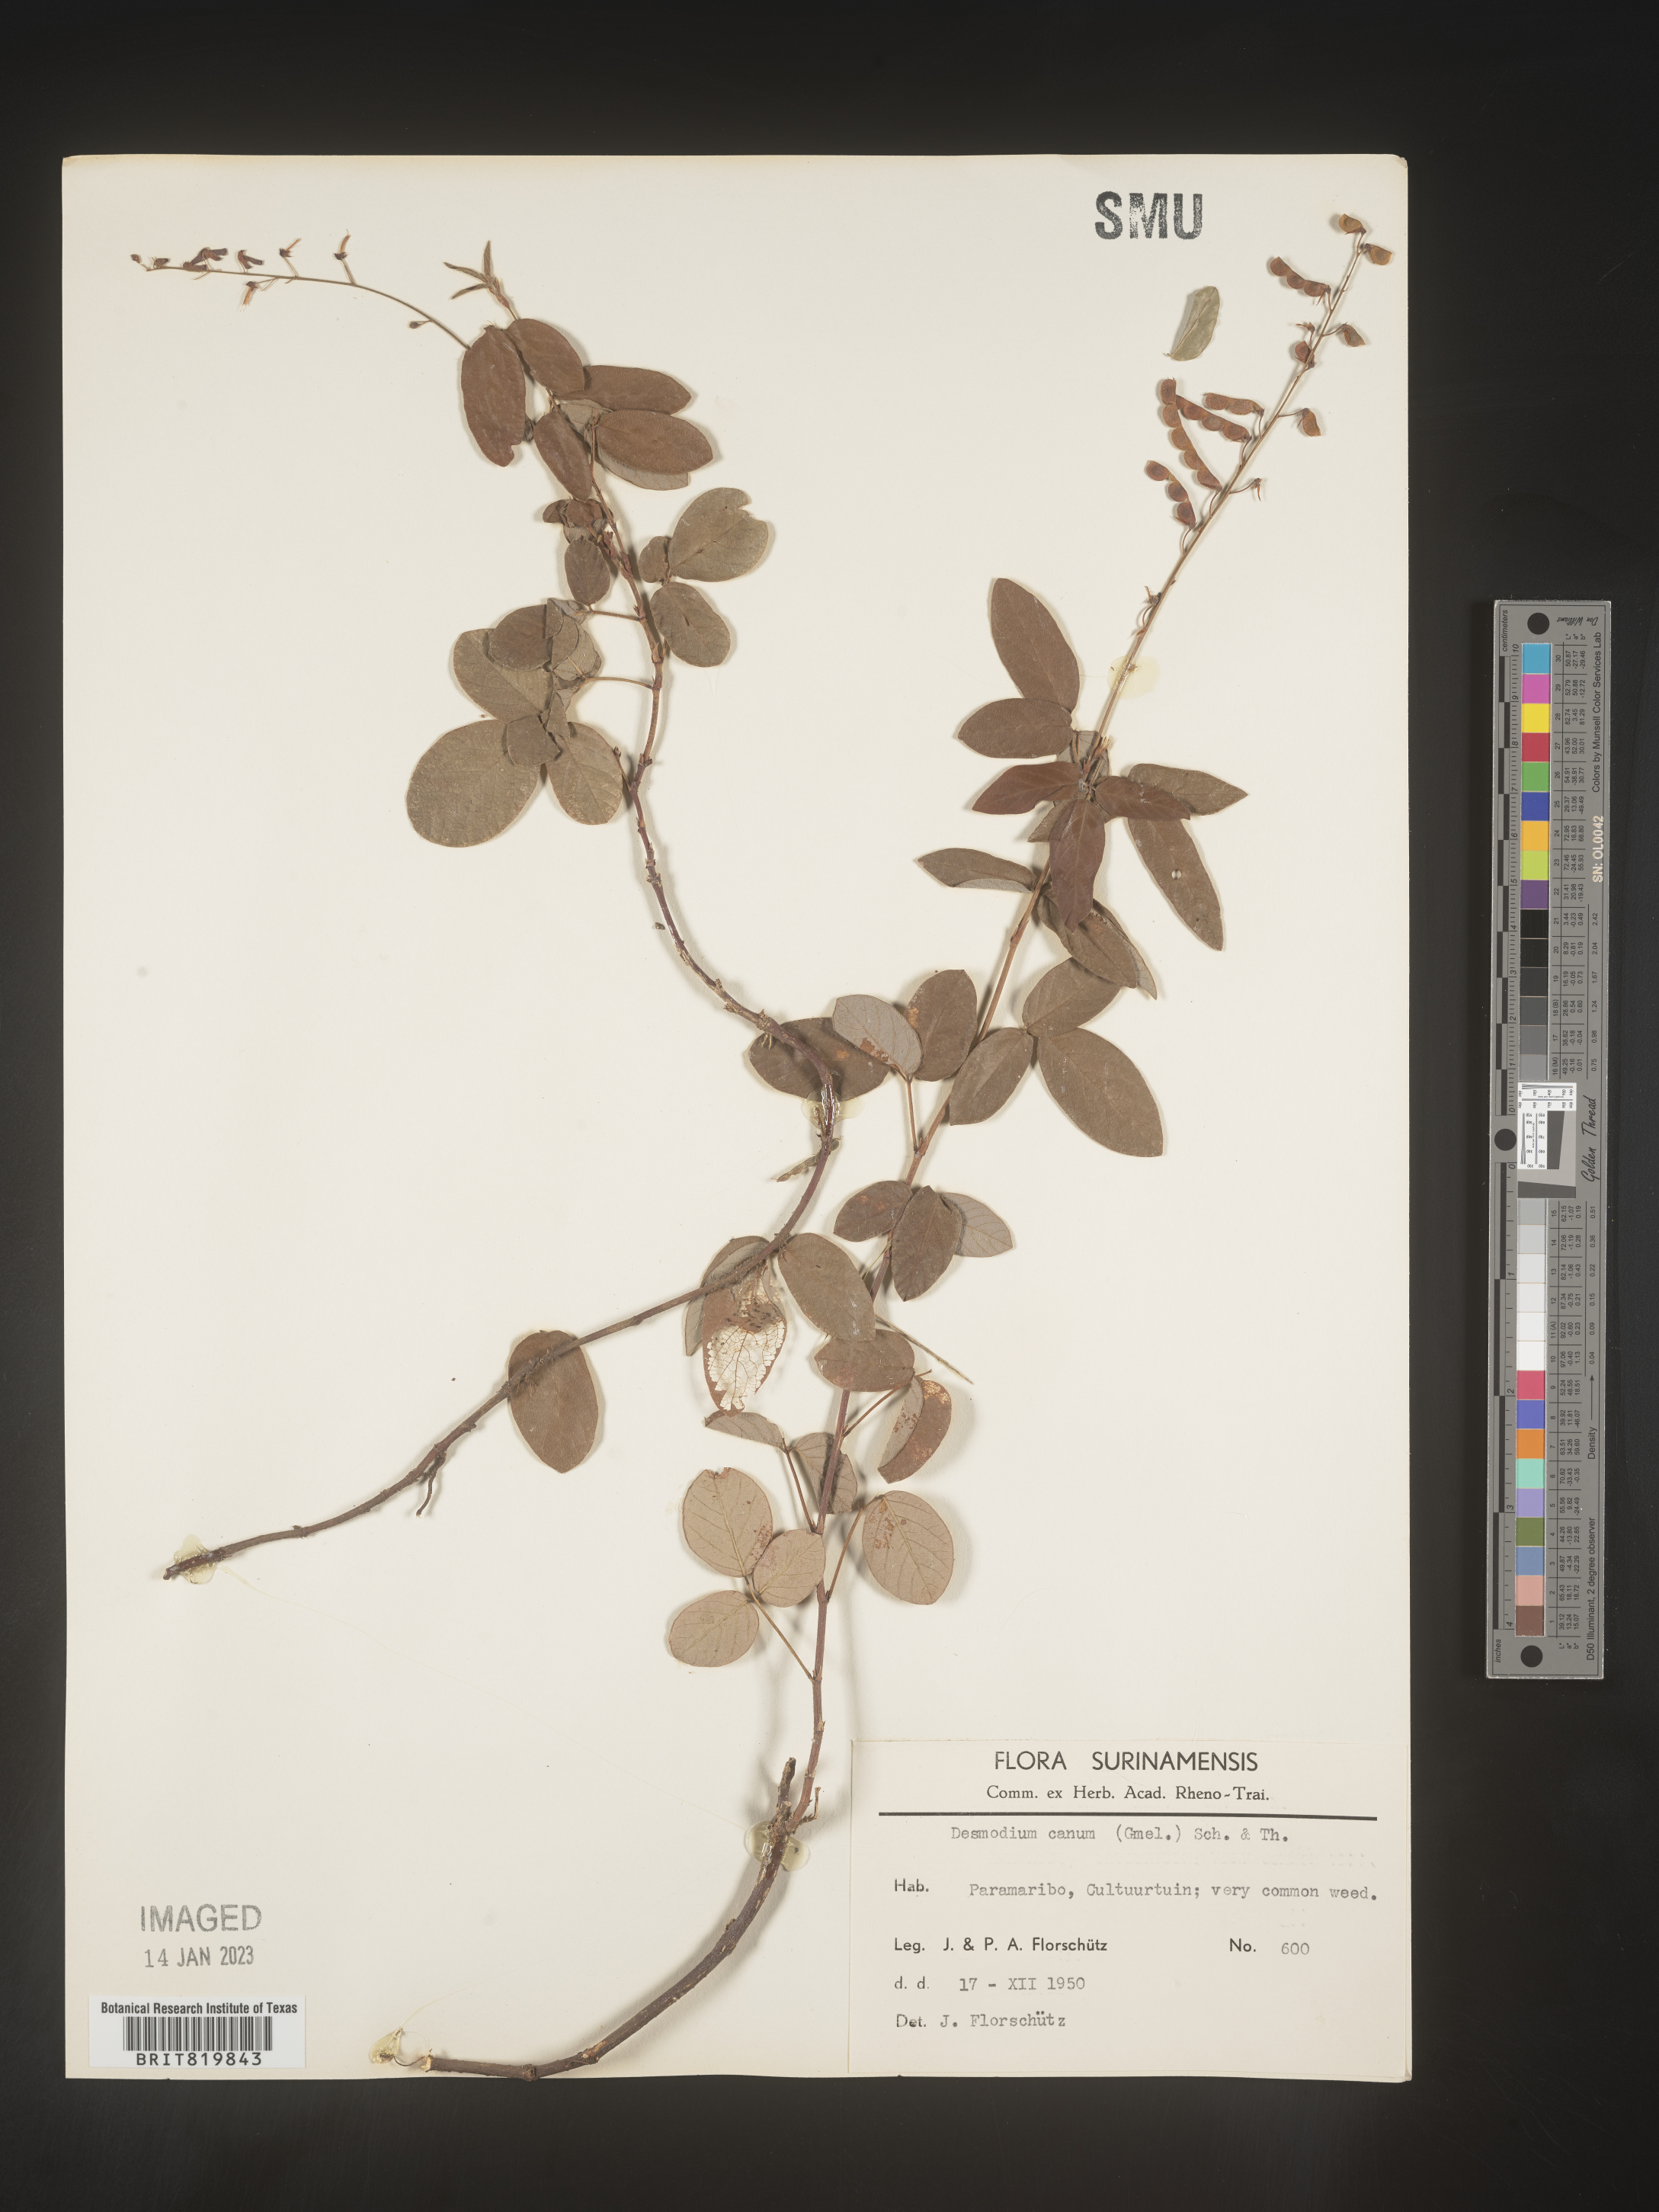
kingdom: Plantae
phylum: Tracheophyta
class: Magnoliopsida
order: Fabales
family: Fabaceae
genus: Desmodium
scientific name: Desmodium
